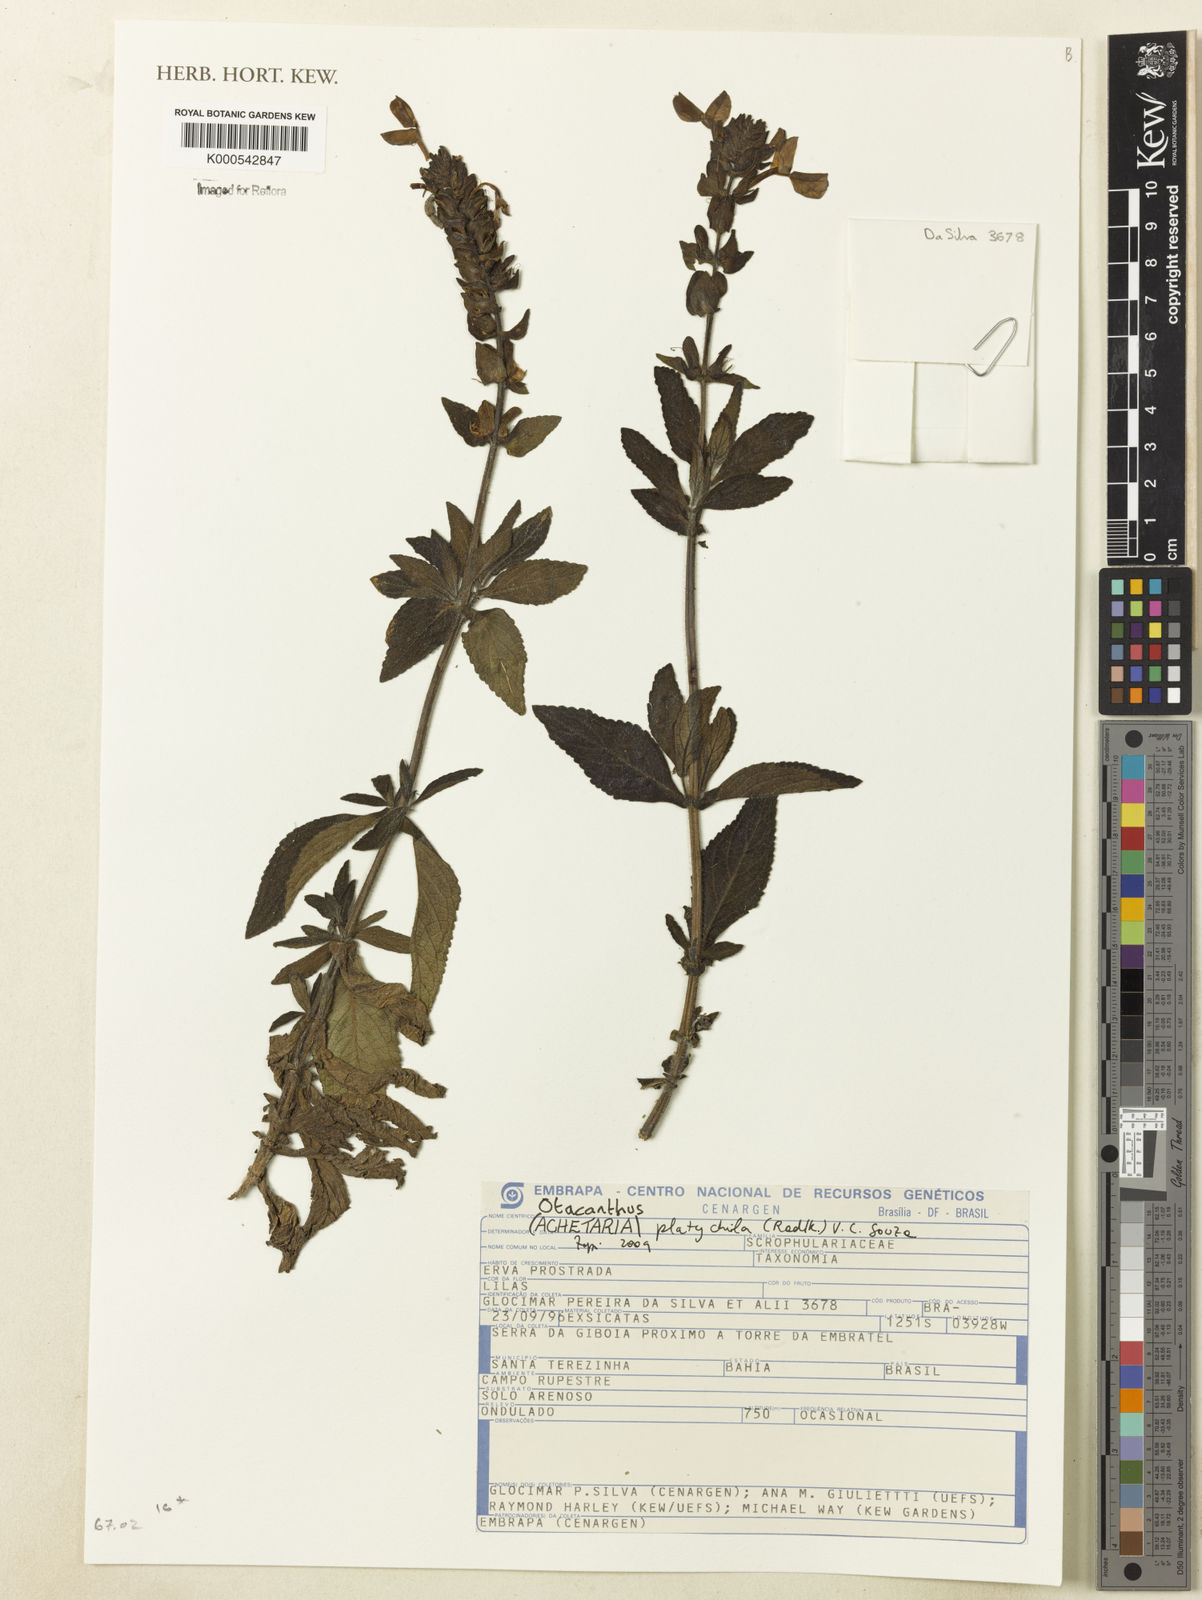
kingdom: Plantae
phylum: Tracheophyta
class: Magnoliopsida
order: Lamiales
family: Plantaginaceae
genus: Matourea
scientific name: Matourea platychila
